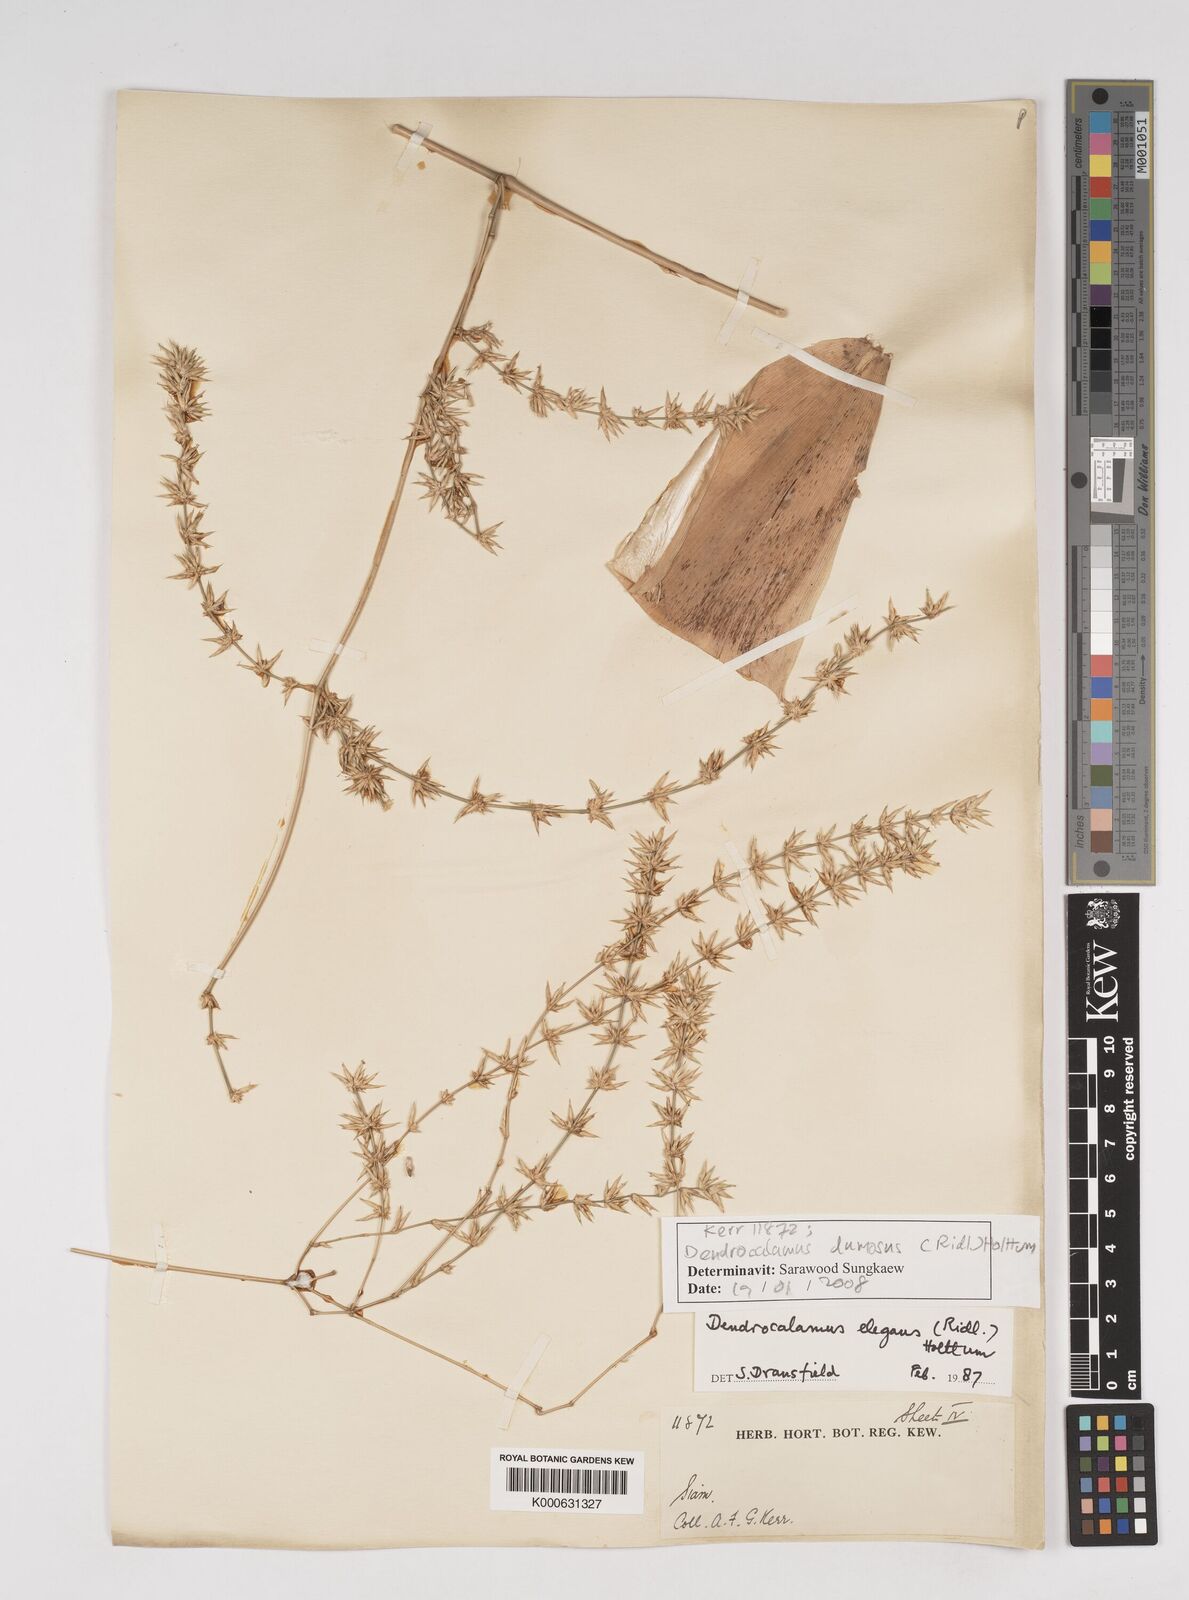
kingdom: Plantae
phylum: Tracheophyta
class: Liliopsida
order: Poales
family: Poaceae
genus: Dendrocalamus
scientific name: Dendrocalamus dumosus
